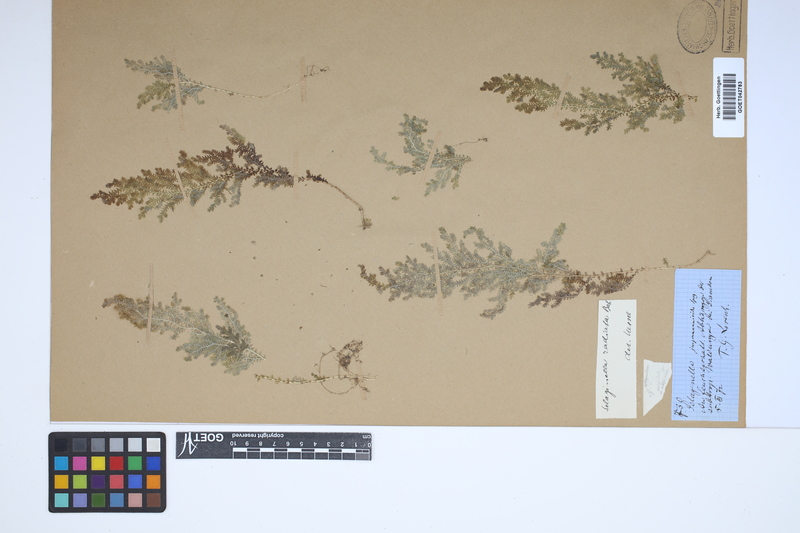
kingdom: Plantae
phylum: Tracheophyta
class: Lycopodiopsida
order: Selaginellales
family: Selaginellaceae
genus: Selaginella
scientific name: Selaginella radiata
